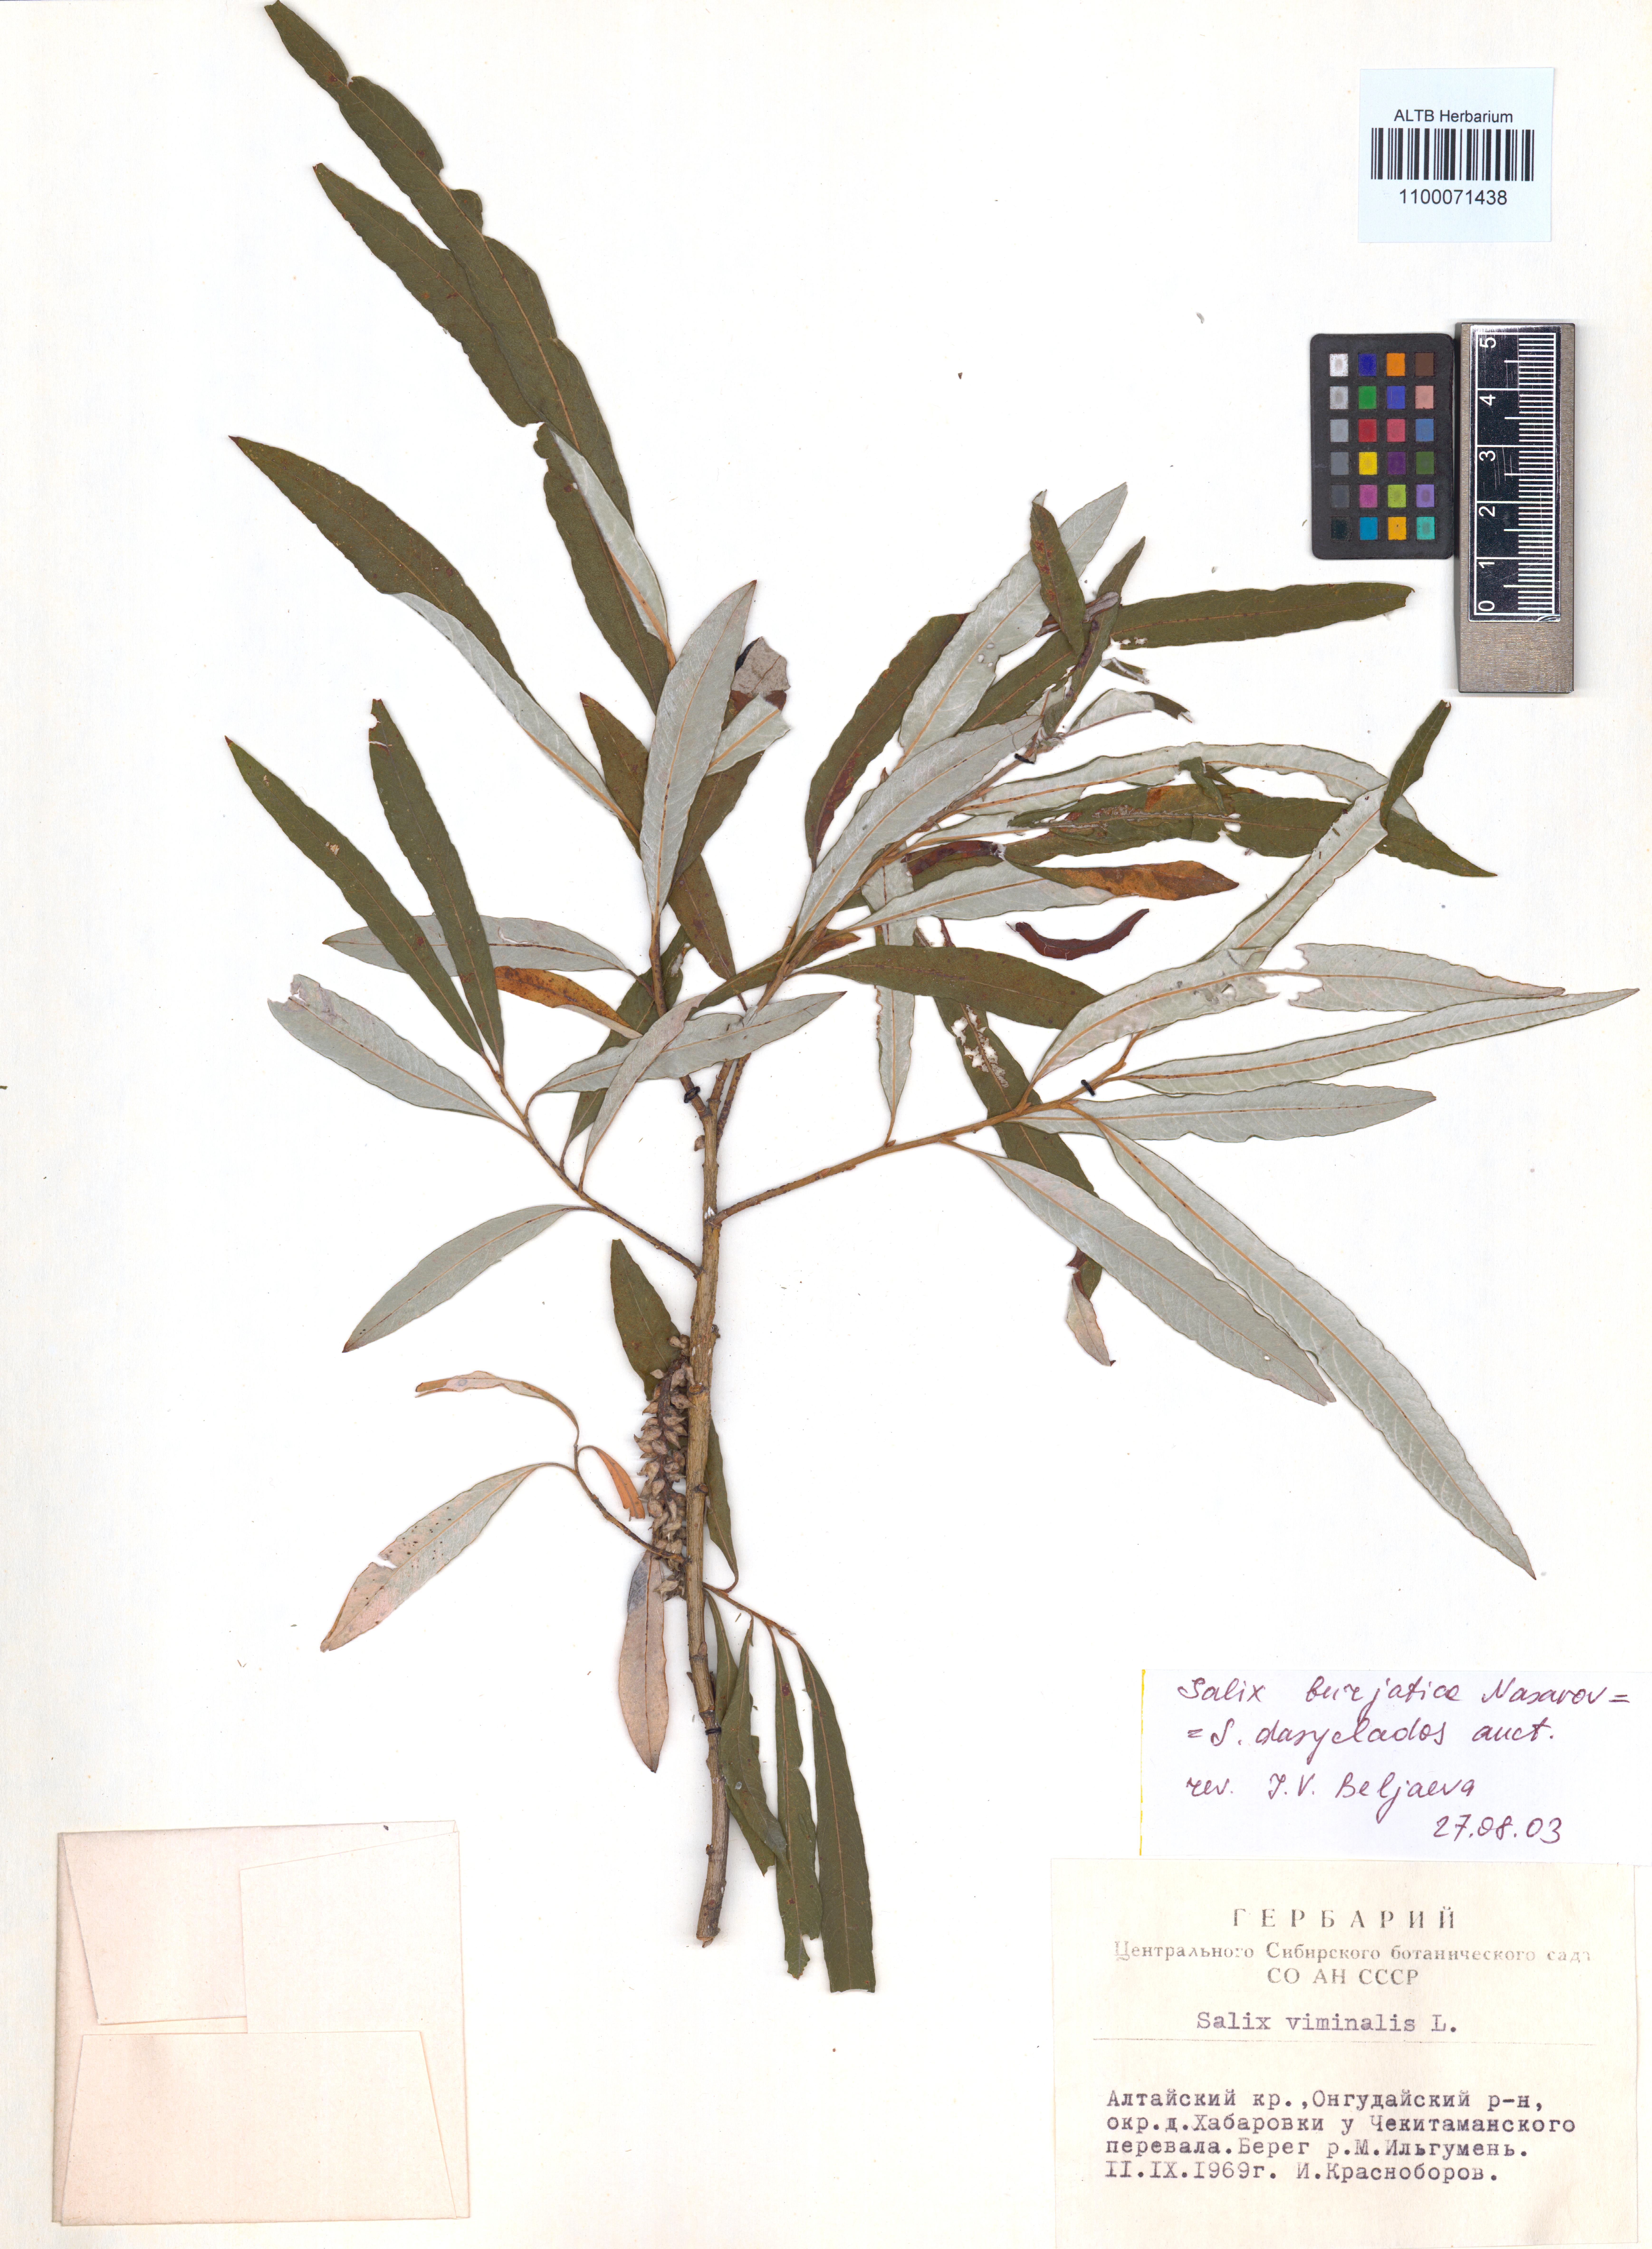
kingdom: Plantae
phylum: Tracheophyta
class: Magnoliopsida
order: Malpighiales
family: Salicaceae
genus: Salix
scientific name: Salix gmelinii
